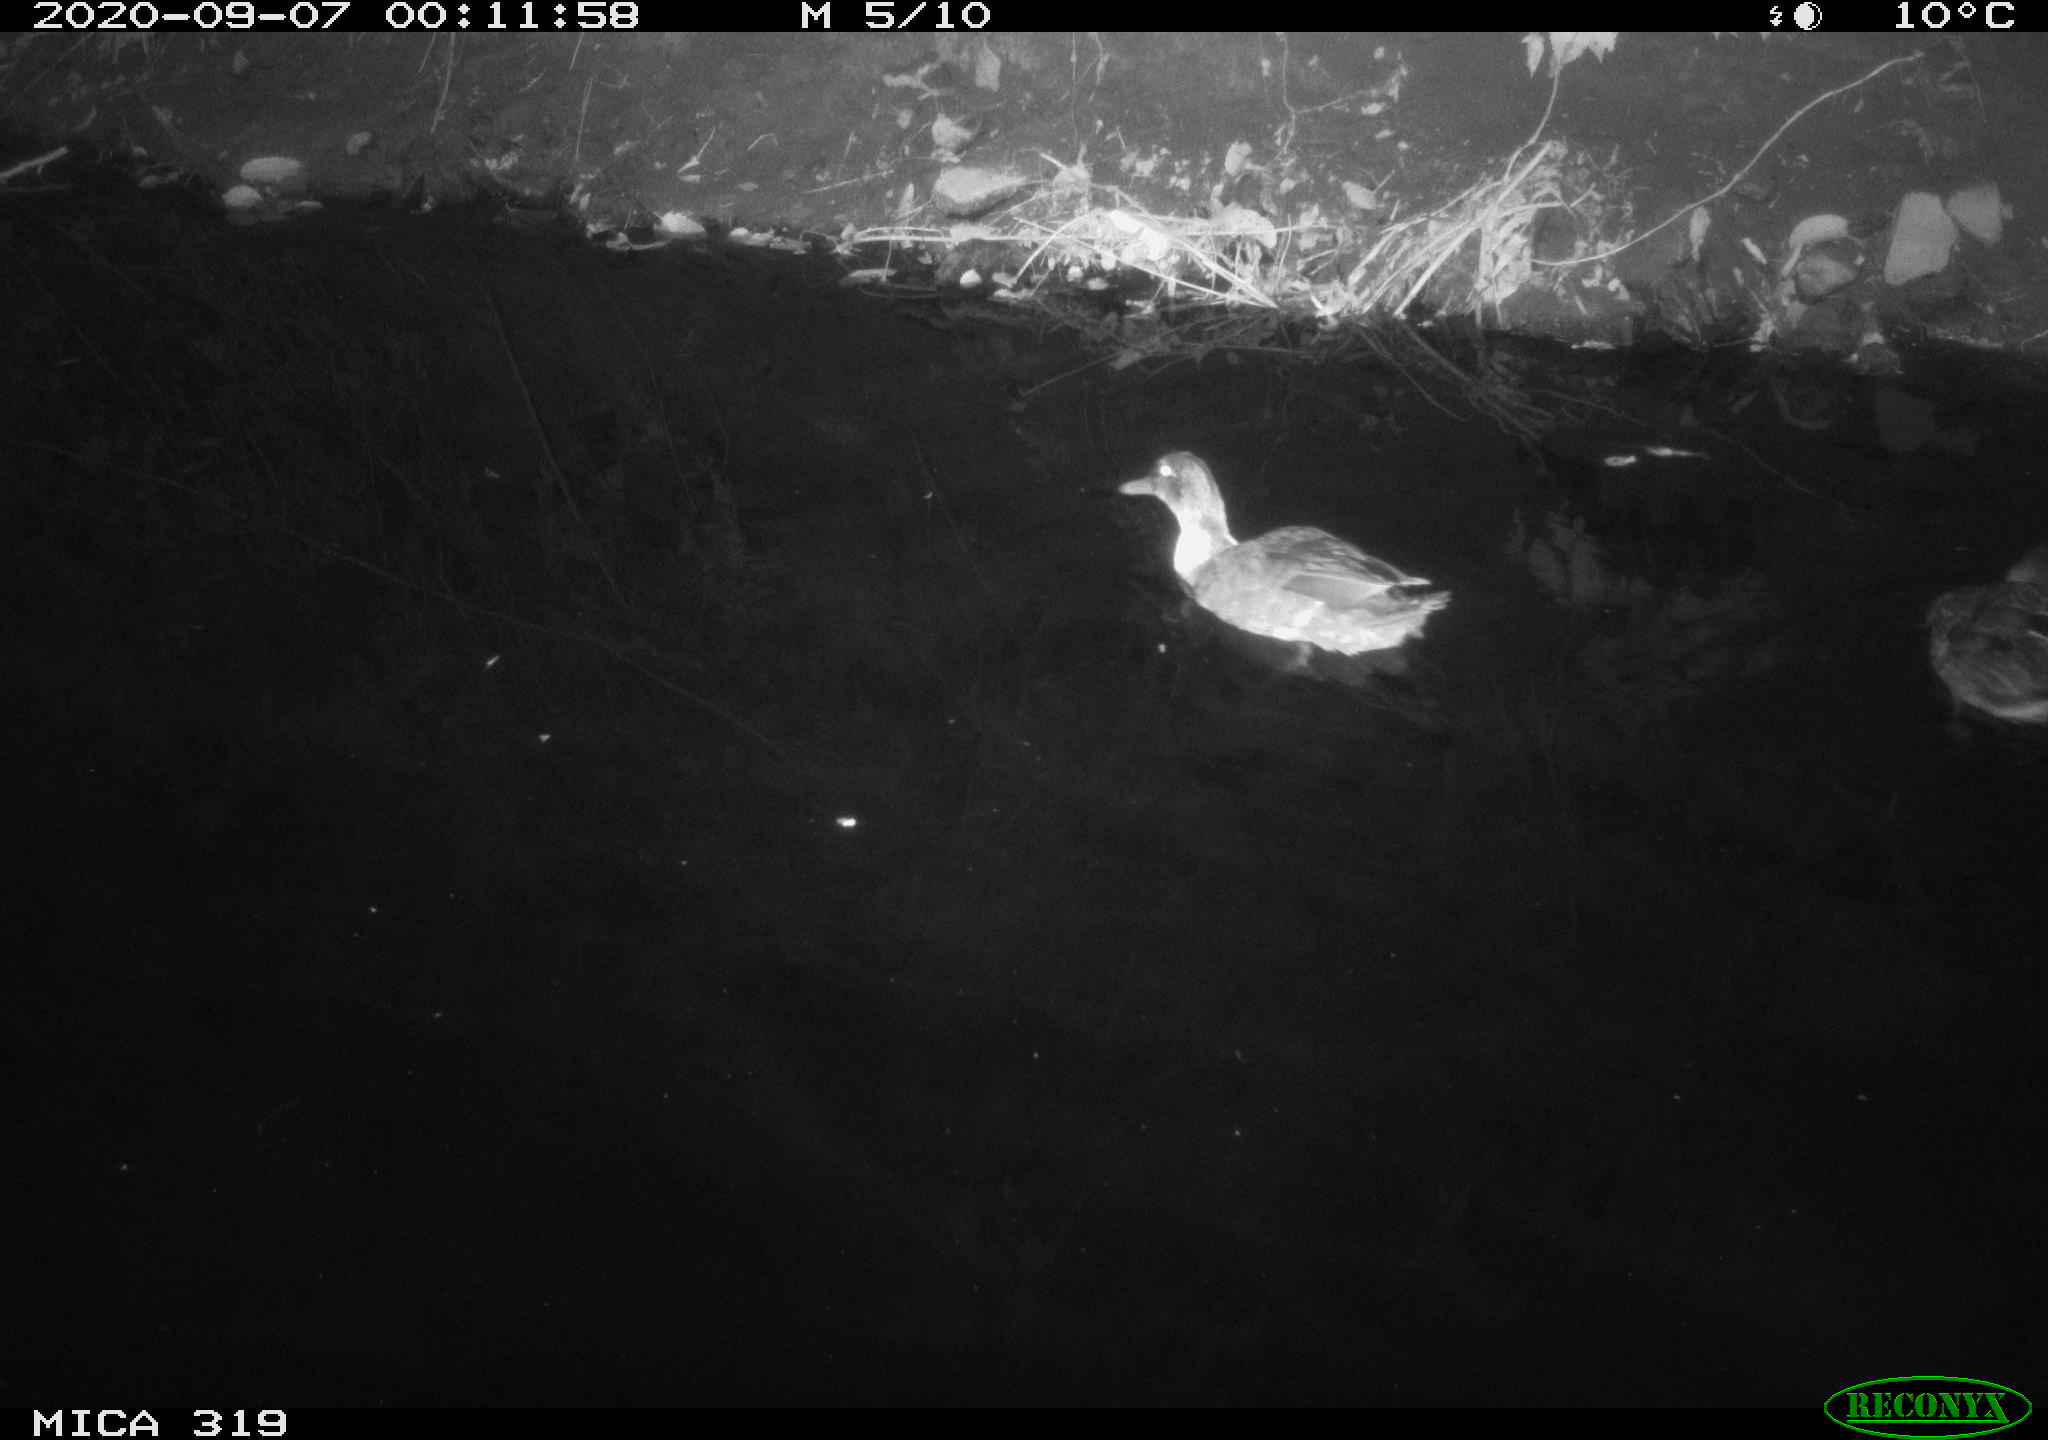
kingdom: Animalia
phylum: Chordata
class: Aves
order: Anseriformes
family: Anatidae
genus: Anas
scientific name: Anas platyrhynchos
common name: Mallard
